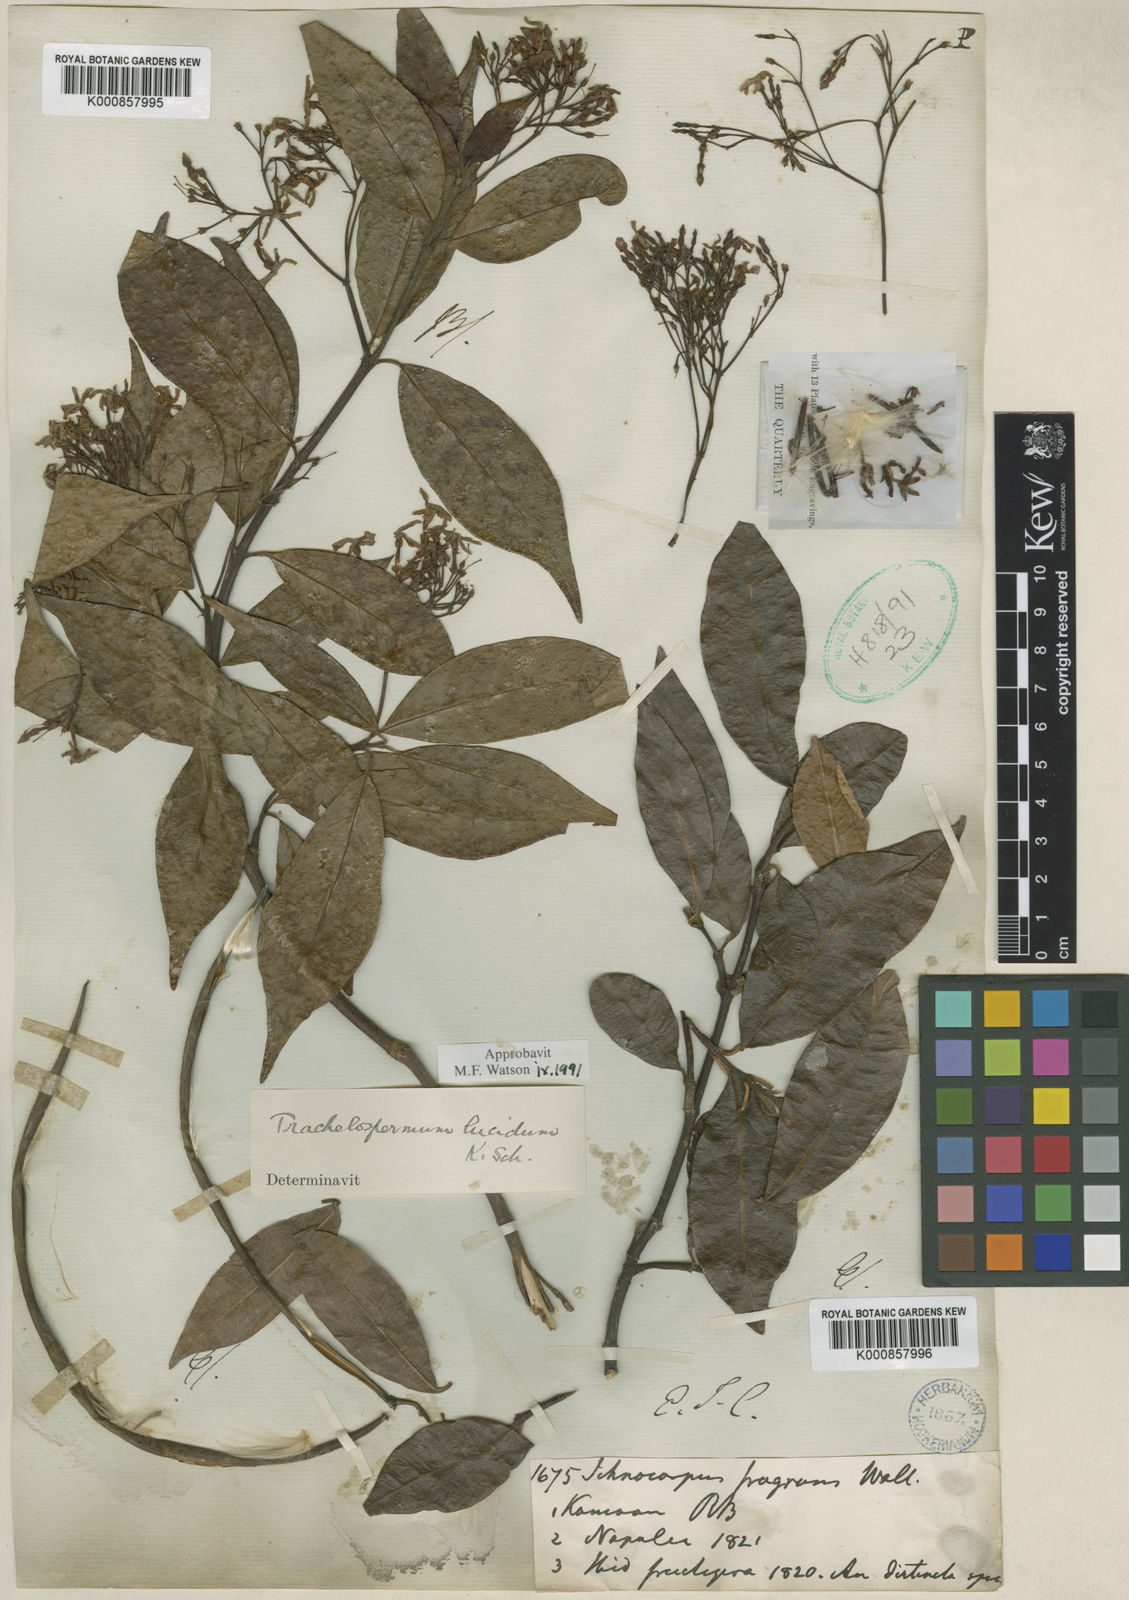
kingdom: Plantae
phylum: Tracheophyta
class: Magnoliopsida
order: Gentianales
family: Apocynaceae
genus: Trachelospermum
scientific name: Trachelospermum lucidum
